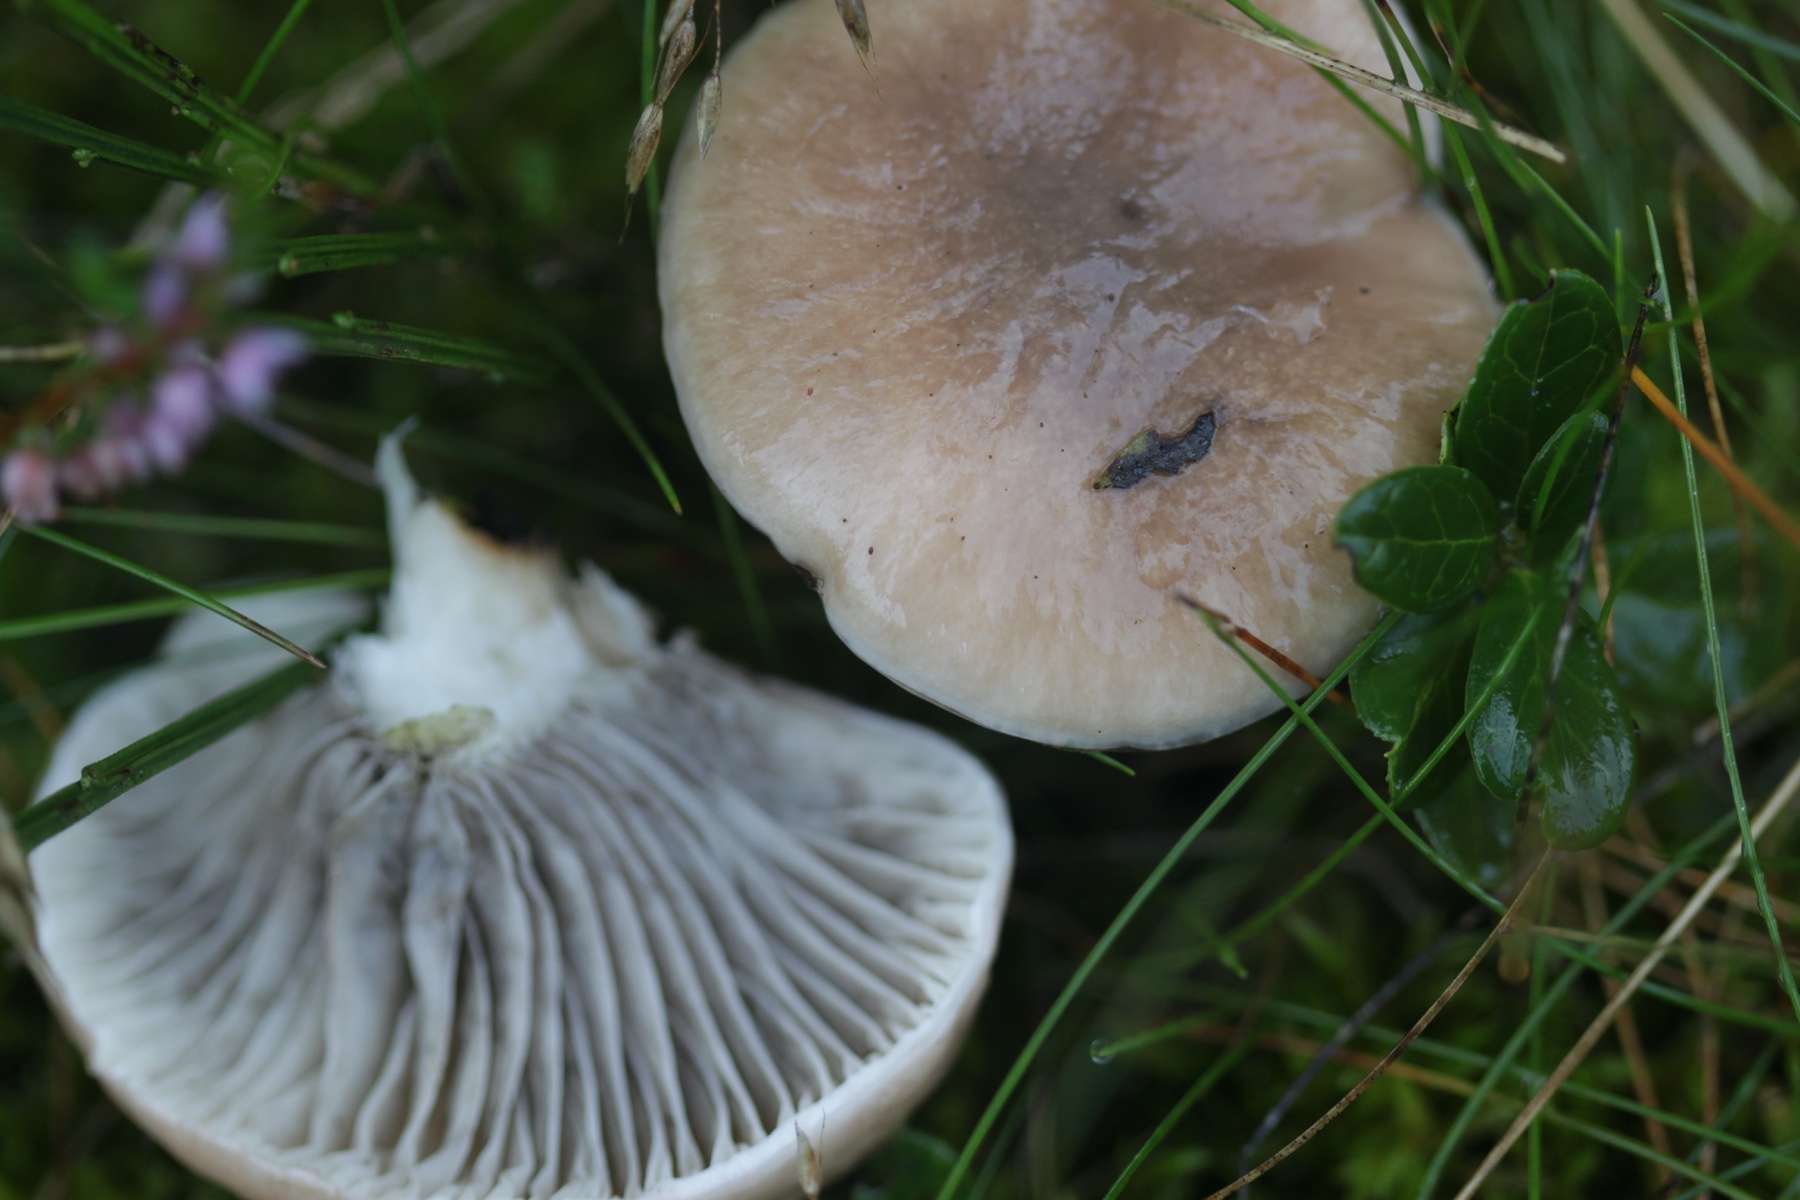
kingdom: Fungi
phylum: Basidiomycota
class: Agaricomycetes
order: Boletales
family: Gomphidiaceae
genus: Gomphidius
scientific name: Gomphidius glutinosus
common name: grå slimslør
